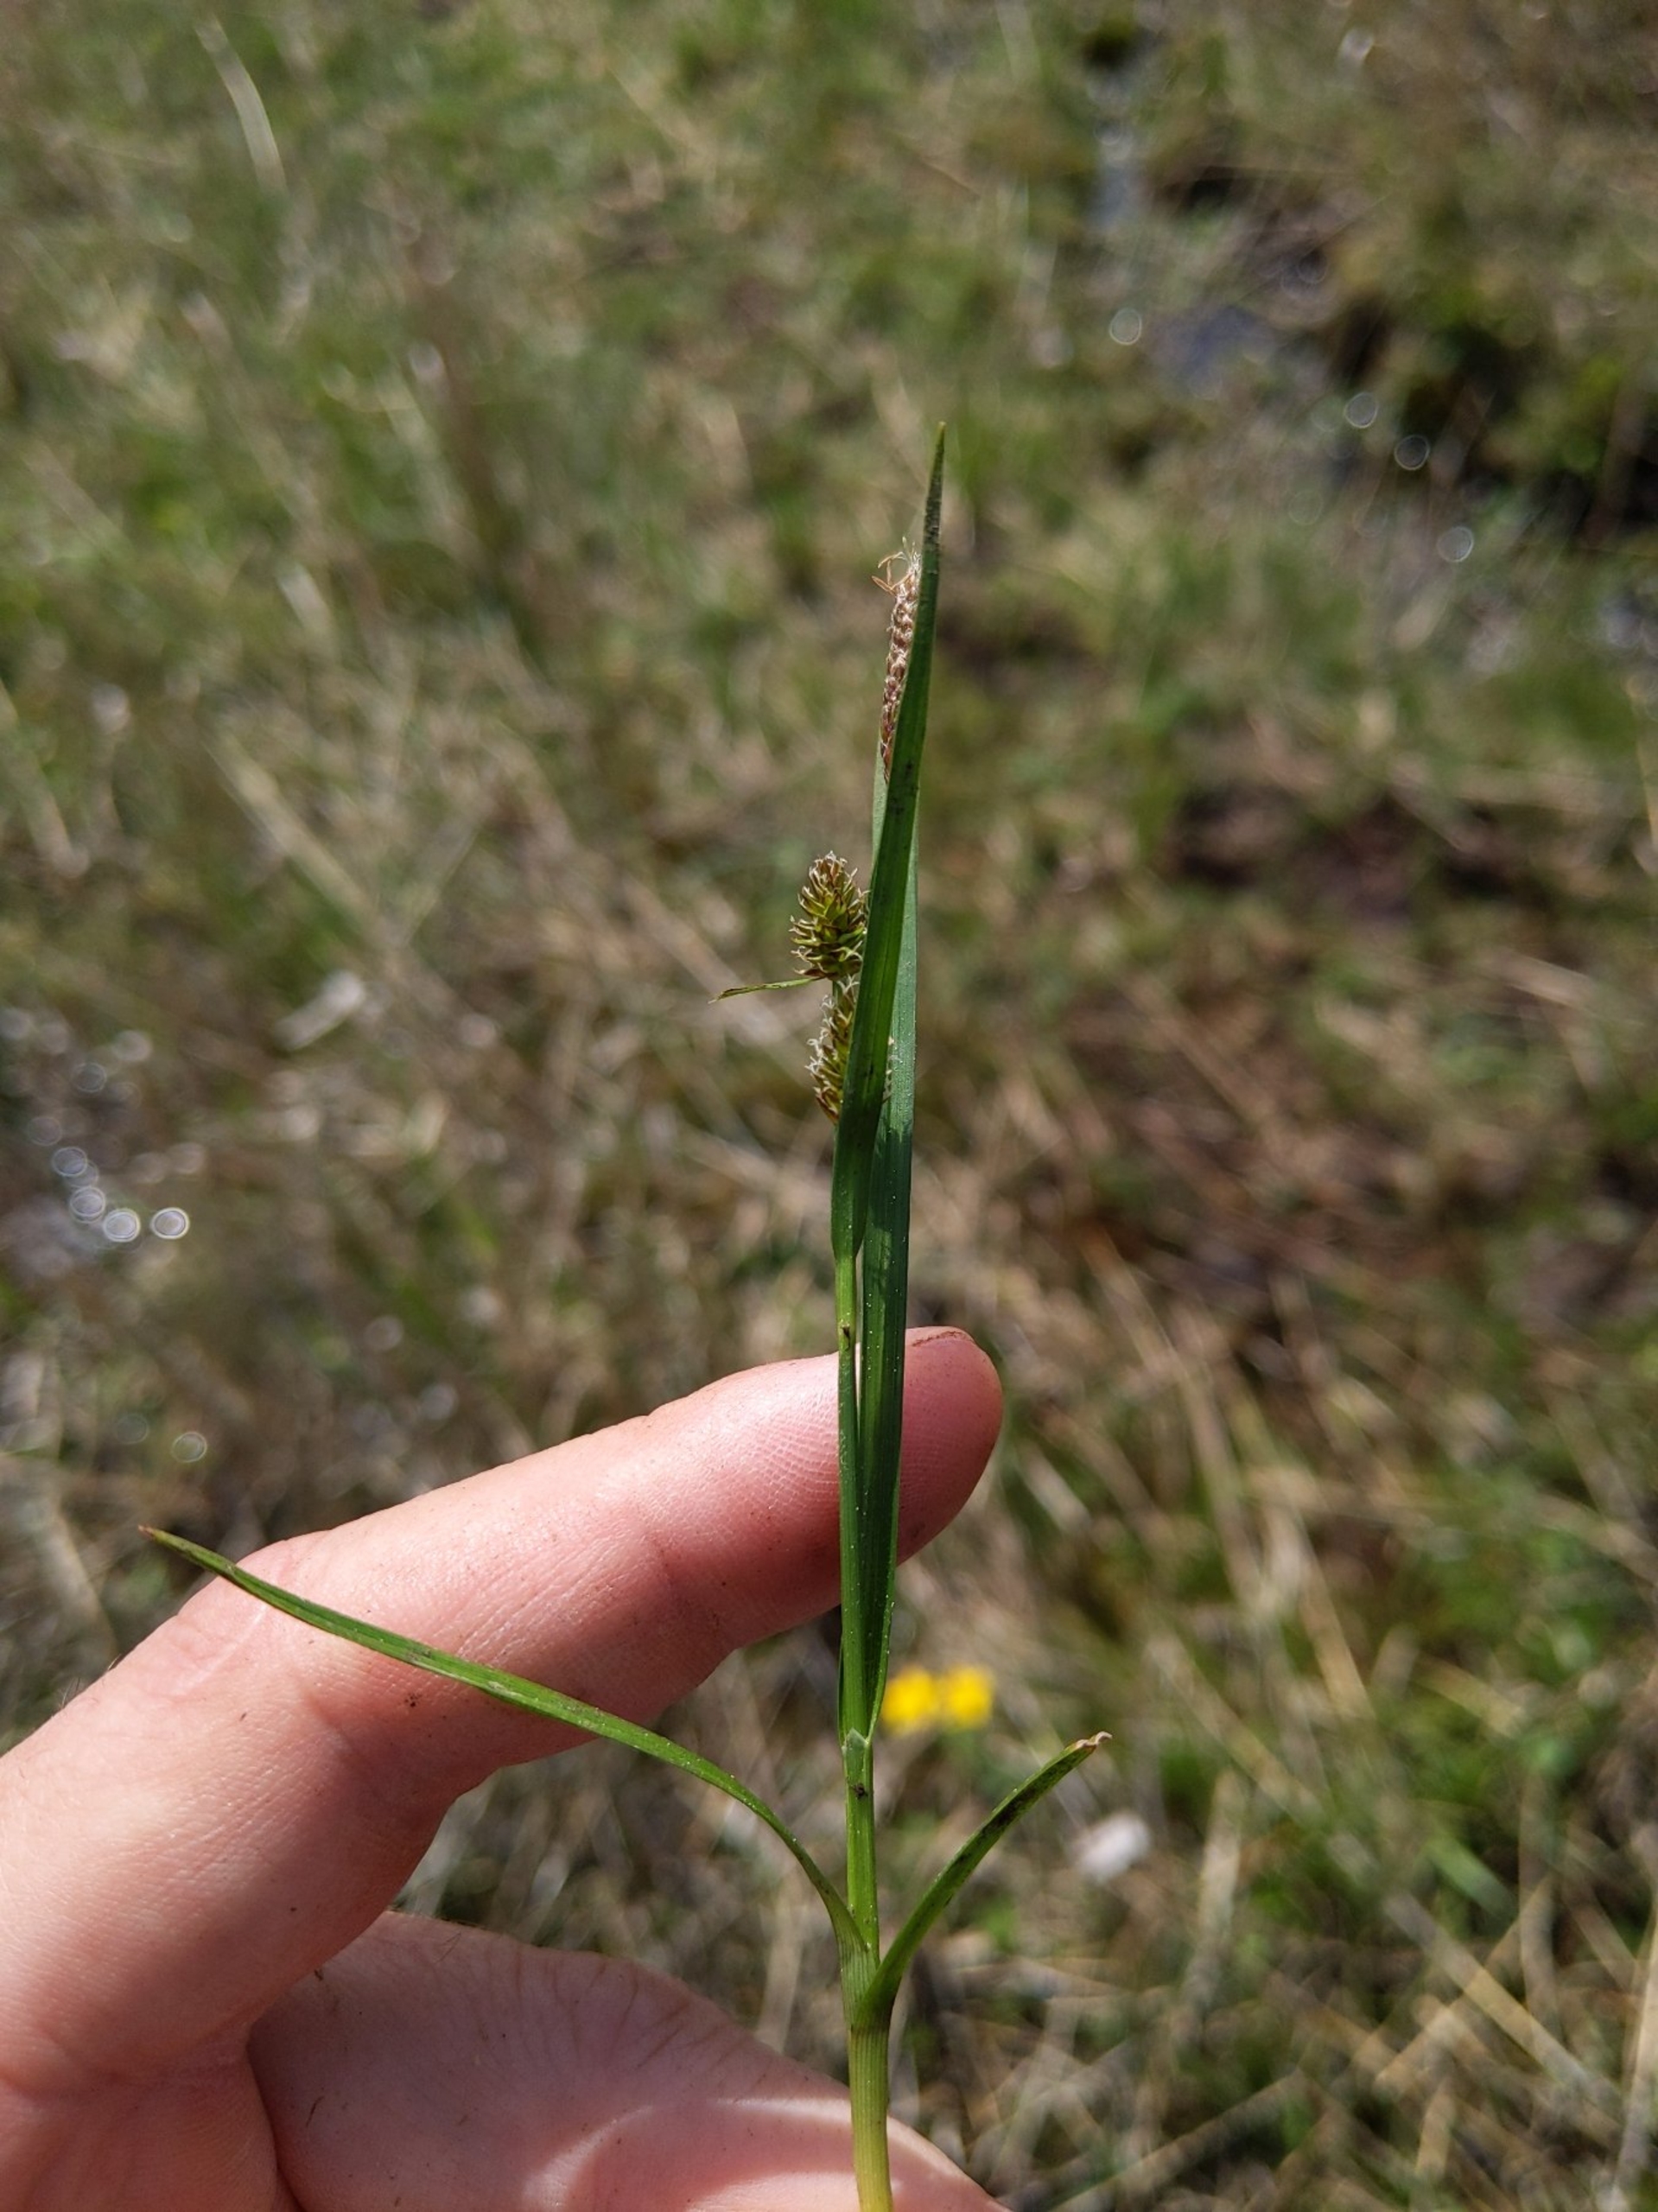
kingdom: Plantae
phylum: Tracheophyta
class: Liliopsida
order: Poales
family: Cyperaceae
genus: Carex
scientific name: Carex hostiana
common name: Skede-star
